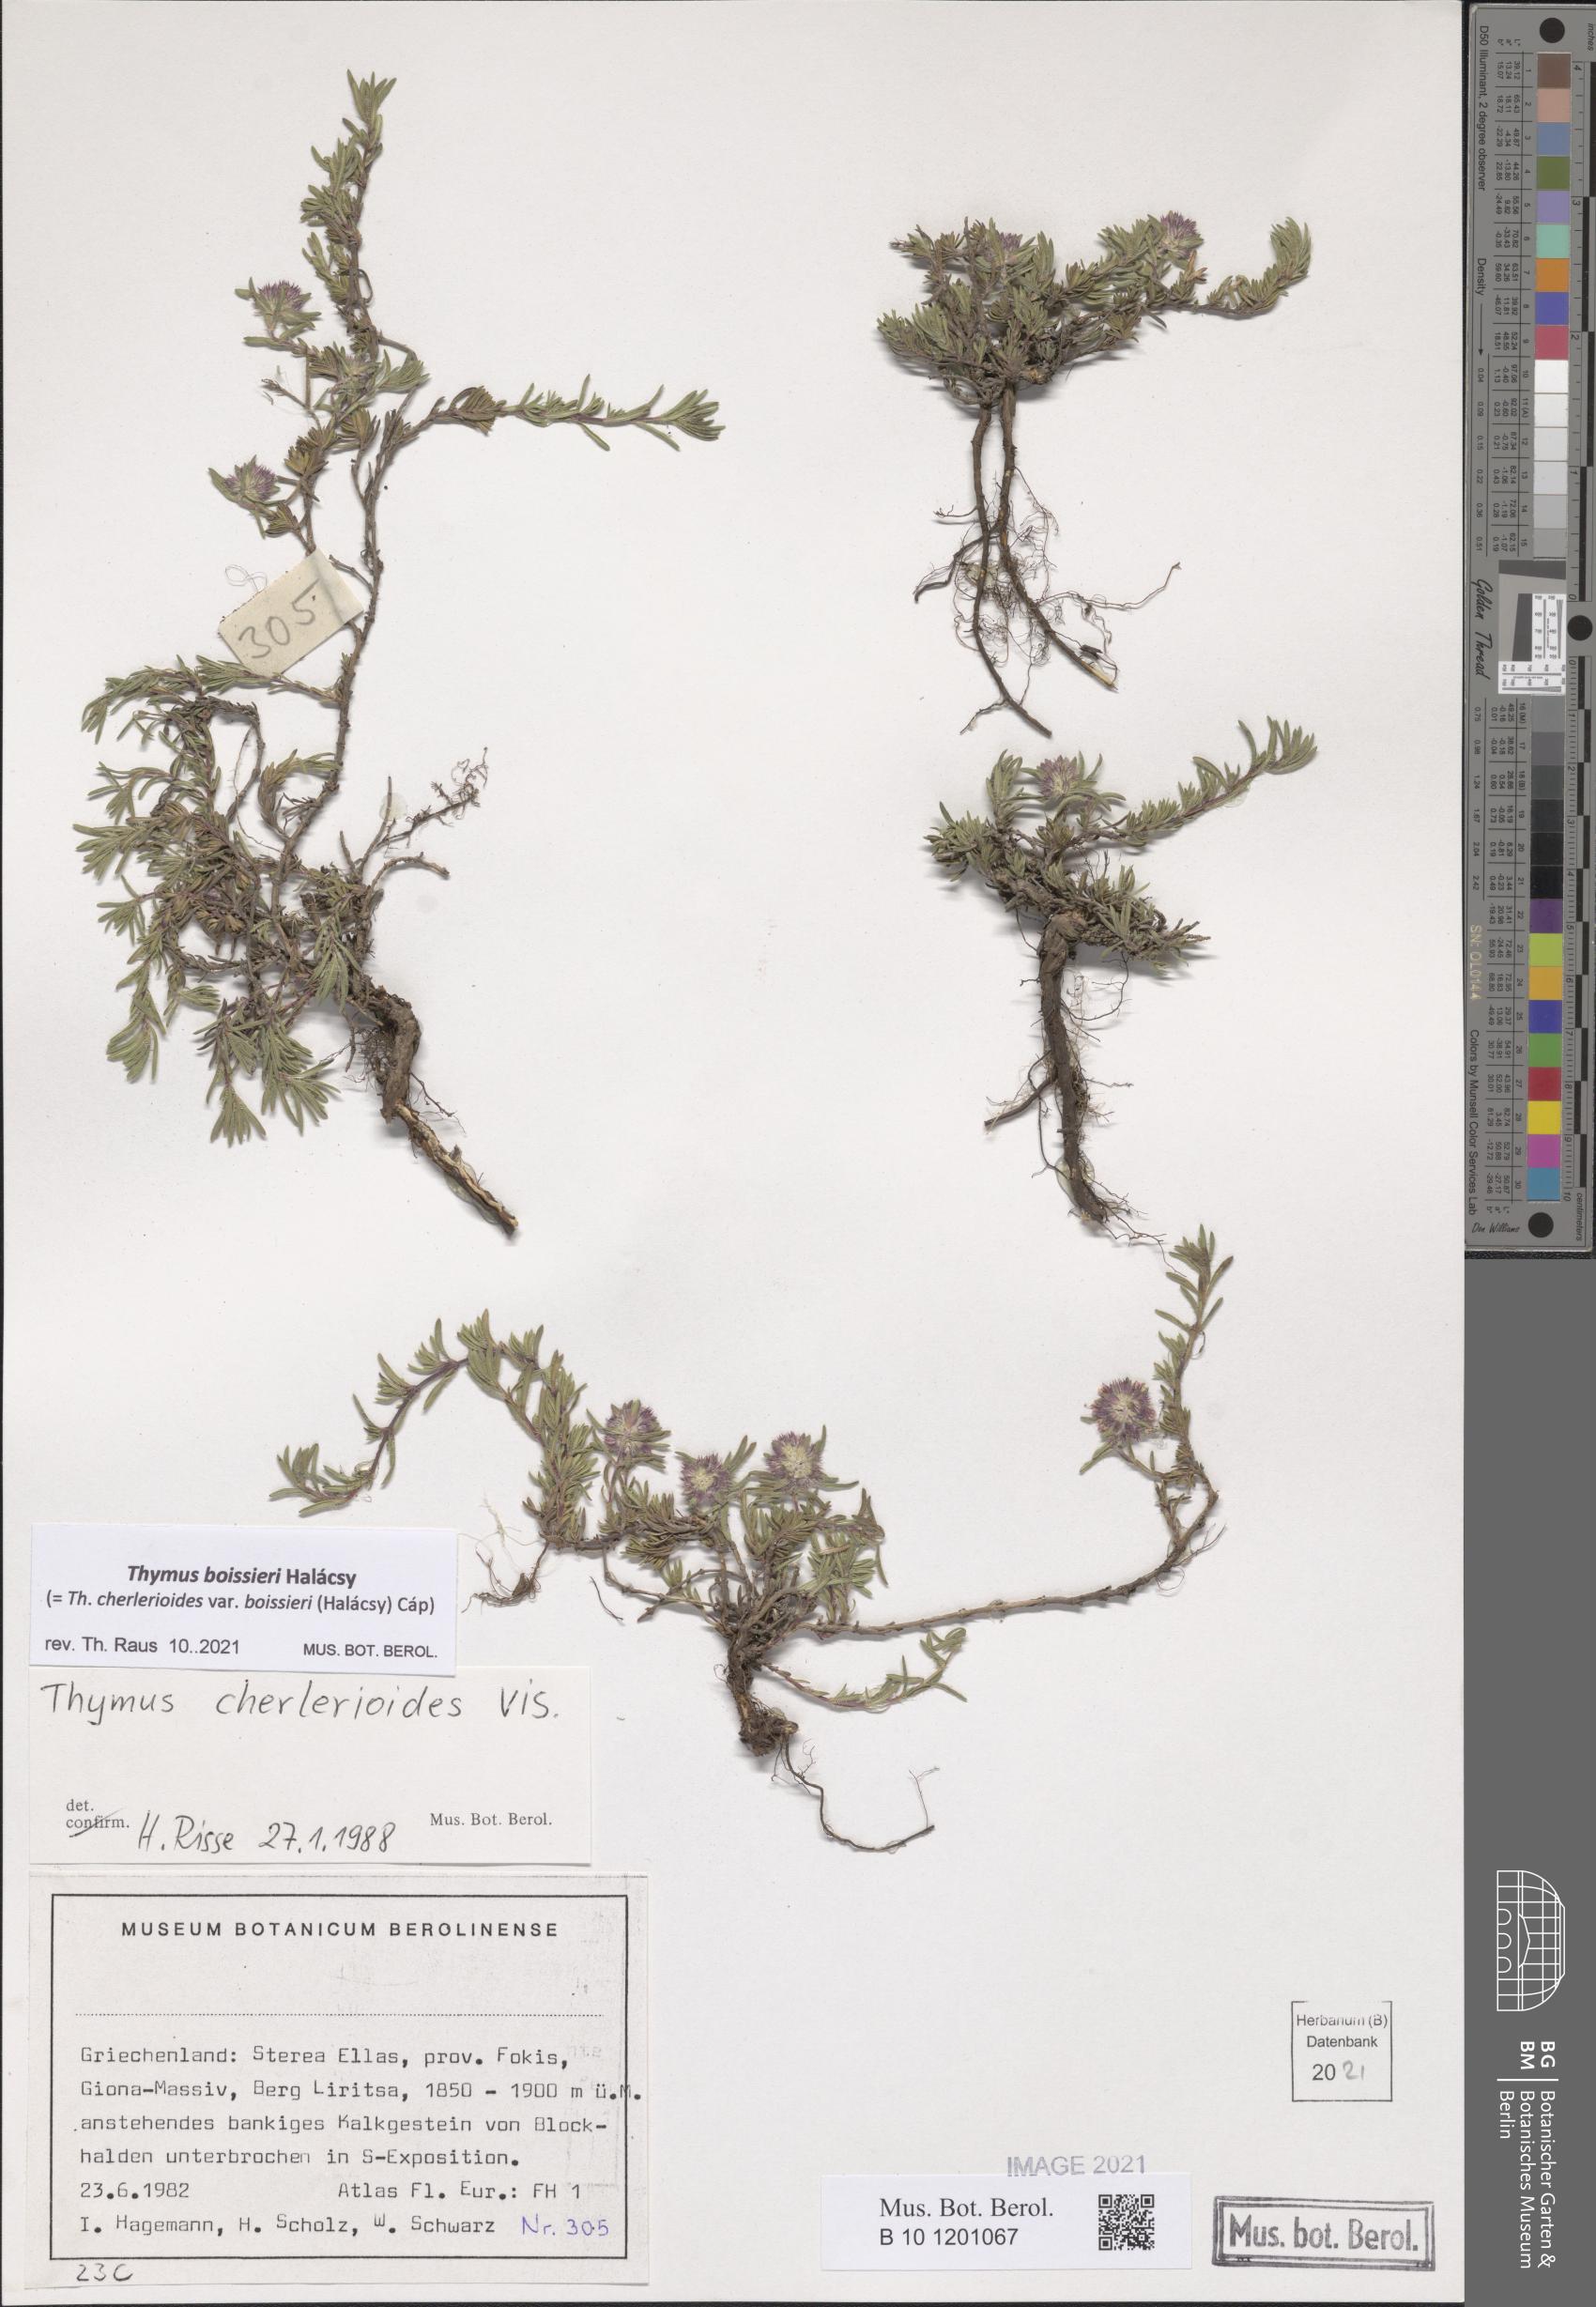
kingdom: Plantae
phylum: Tracheophyta
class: Magnoliopsida
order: Lamiales
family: Lamiaceae
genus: Thymus
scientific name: Thymus boissieri
